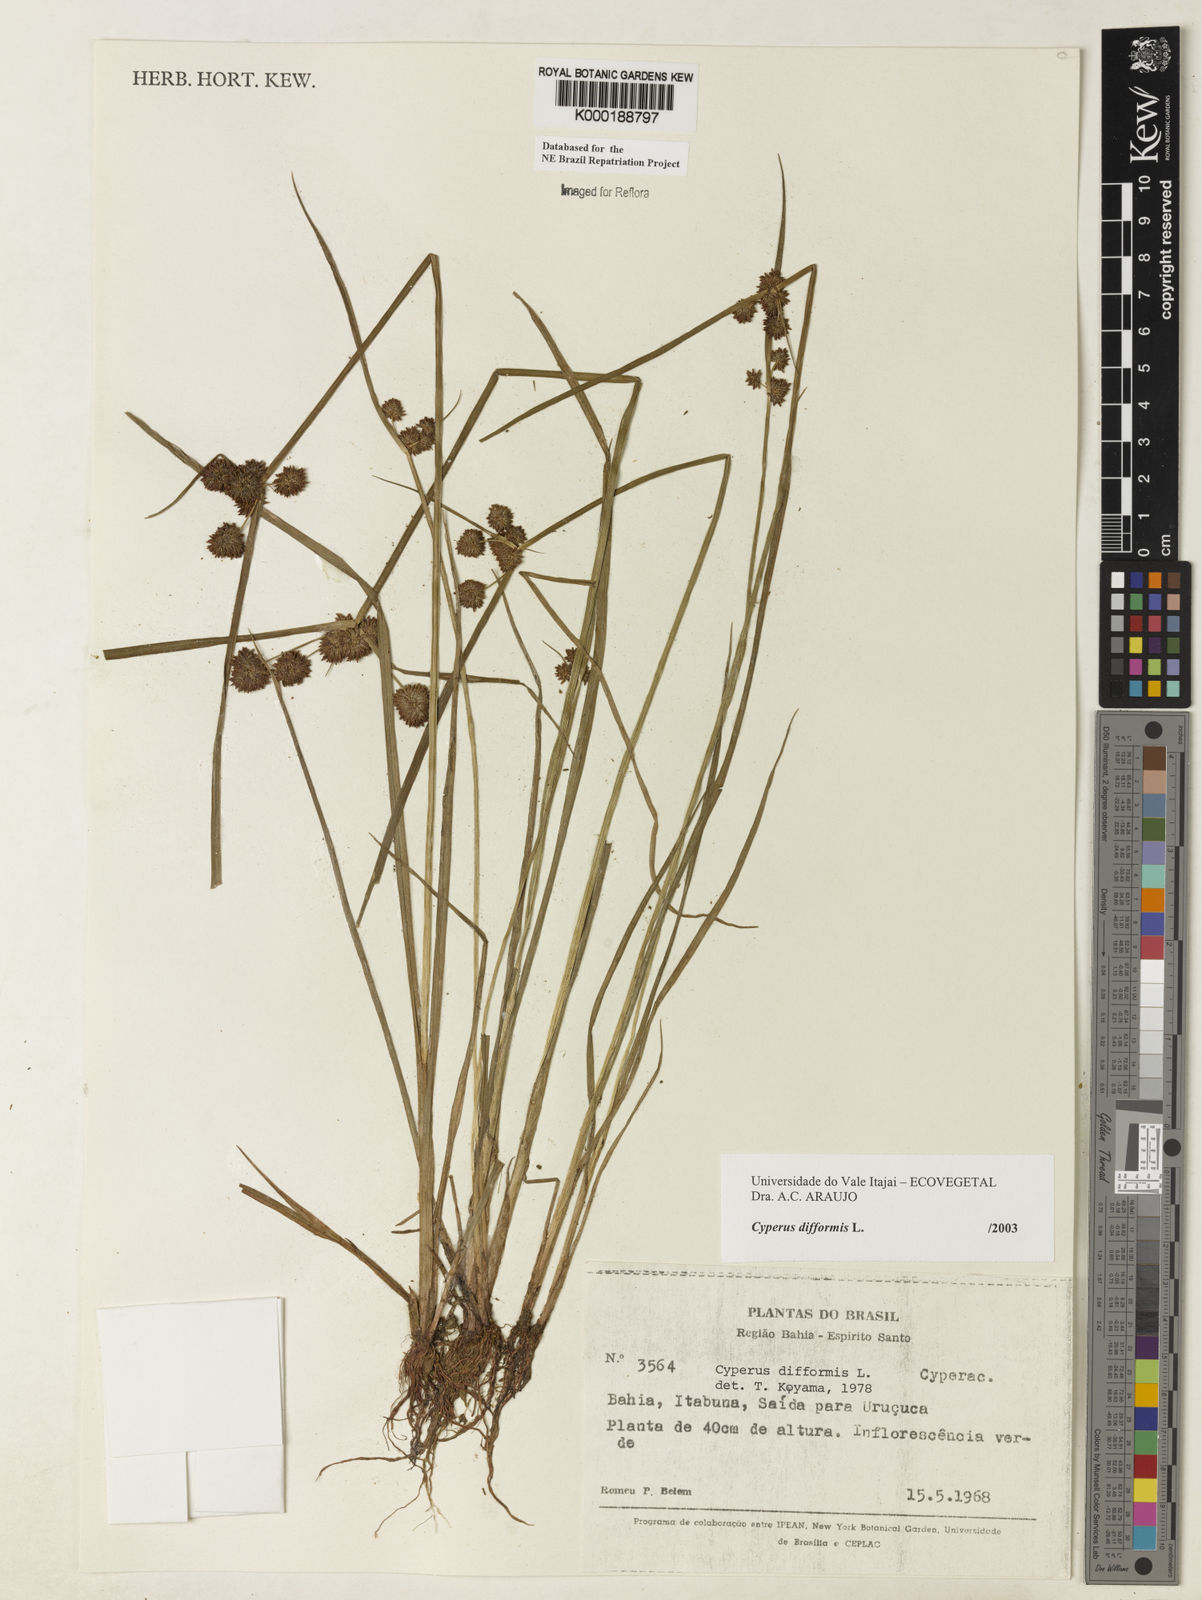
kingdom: Plantae
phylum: Tracheophyta
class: Liliopsida
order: Poales
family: Cyperaceae
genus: Cyperus
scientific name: Cyperus difformis
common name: Variable flatsedge
